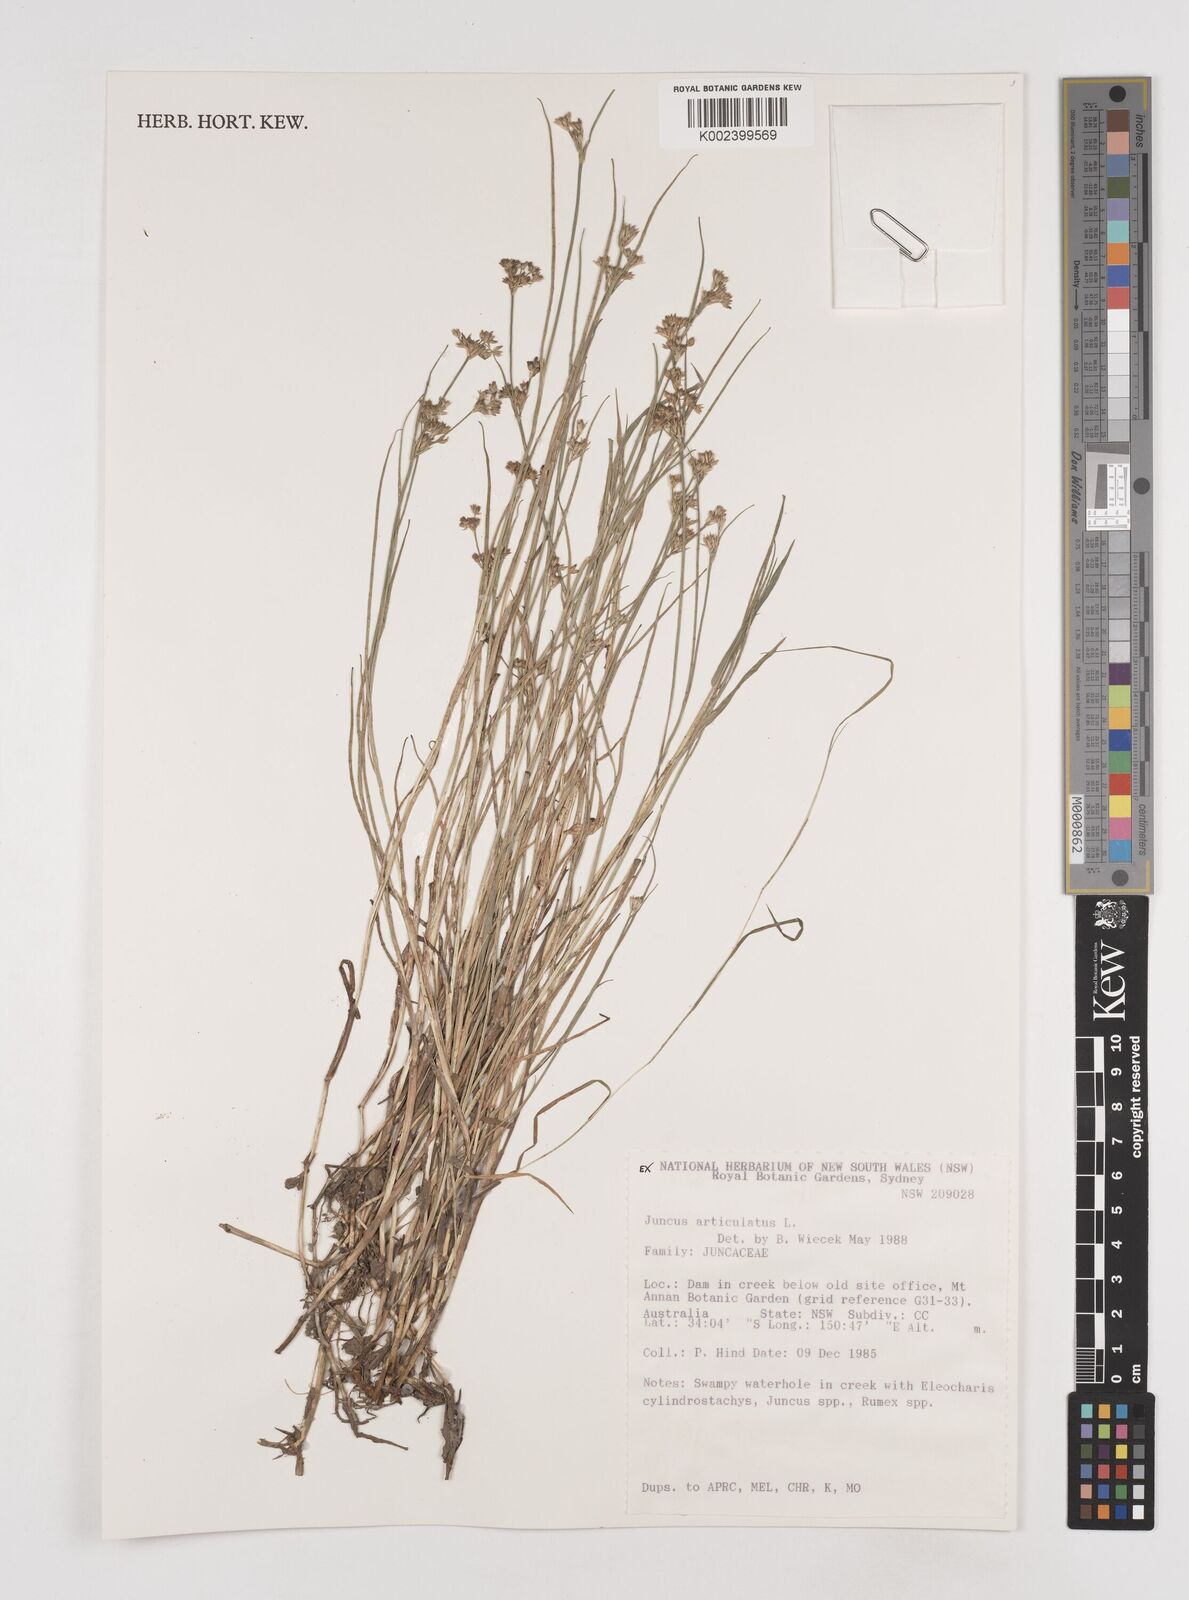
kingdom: Plantae
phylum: Tracheophyta
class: Liliopsida
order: Poales
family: Juncaceae
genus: Juncus
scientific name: Juncus articulatus
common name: Jointed rush
